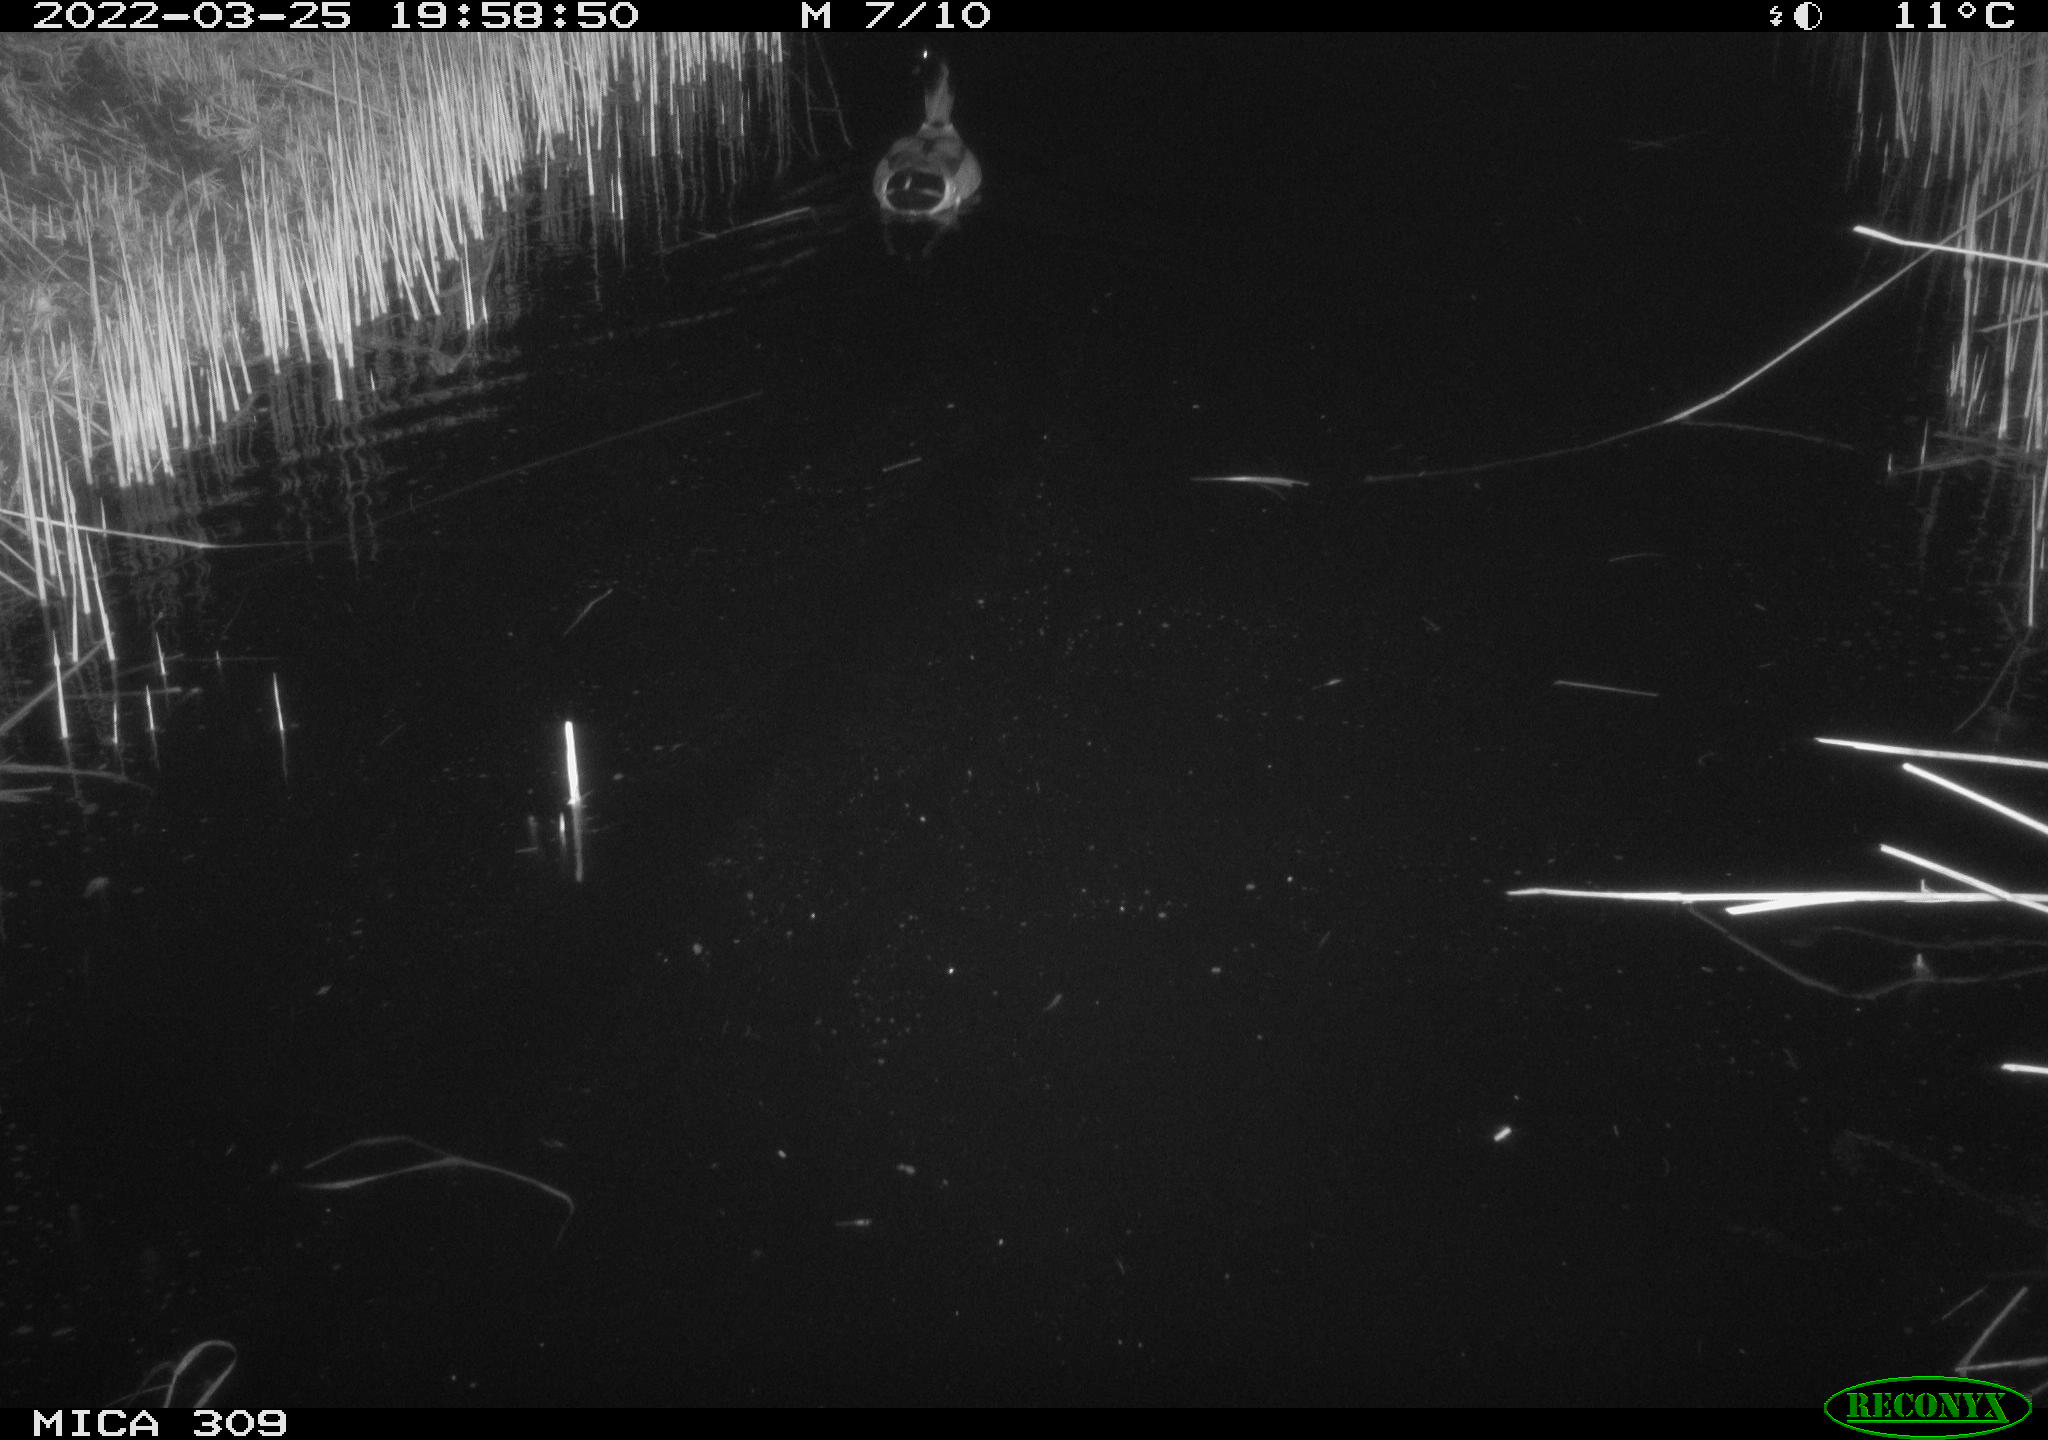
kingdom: Animalia
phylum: Chordata
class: Aves
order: Anseriformes
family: Anatidae
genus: Anas
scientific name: Anas platyrhynchos
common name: Mallard
